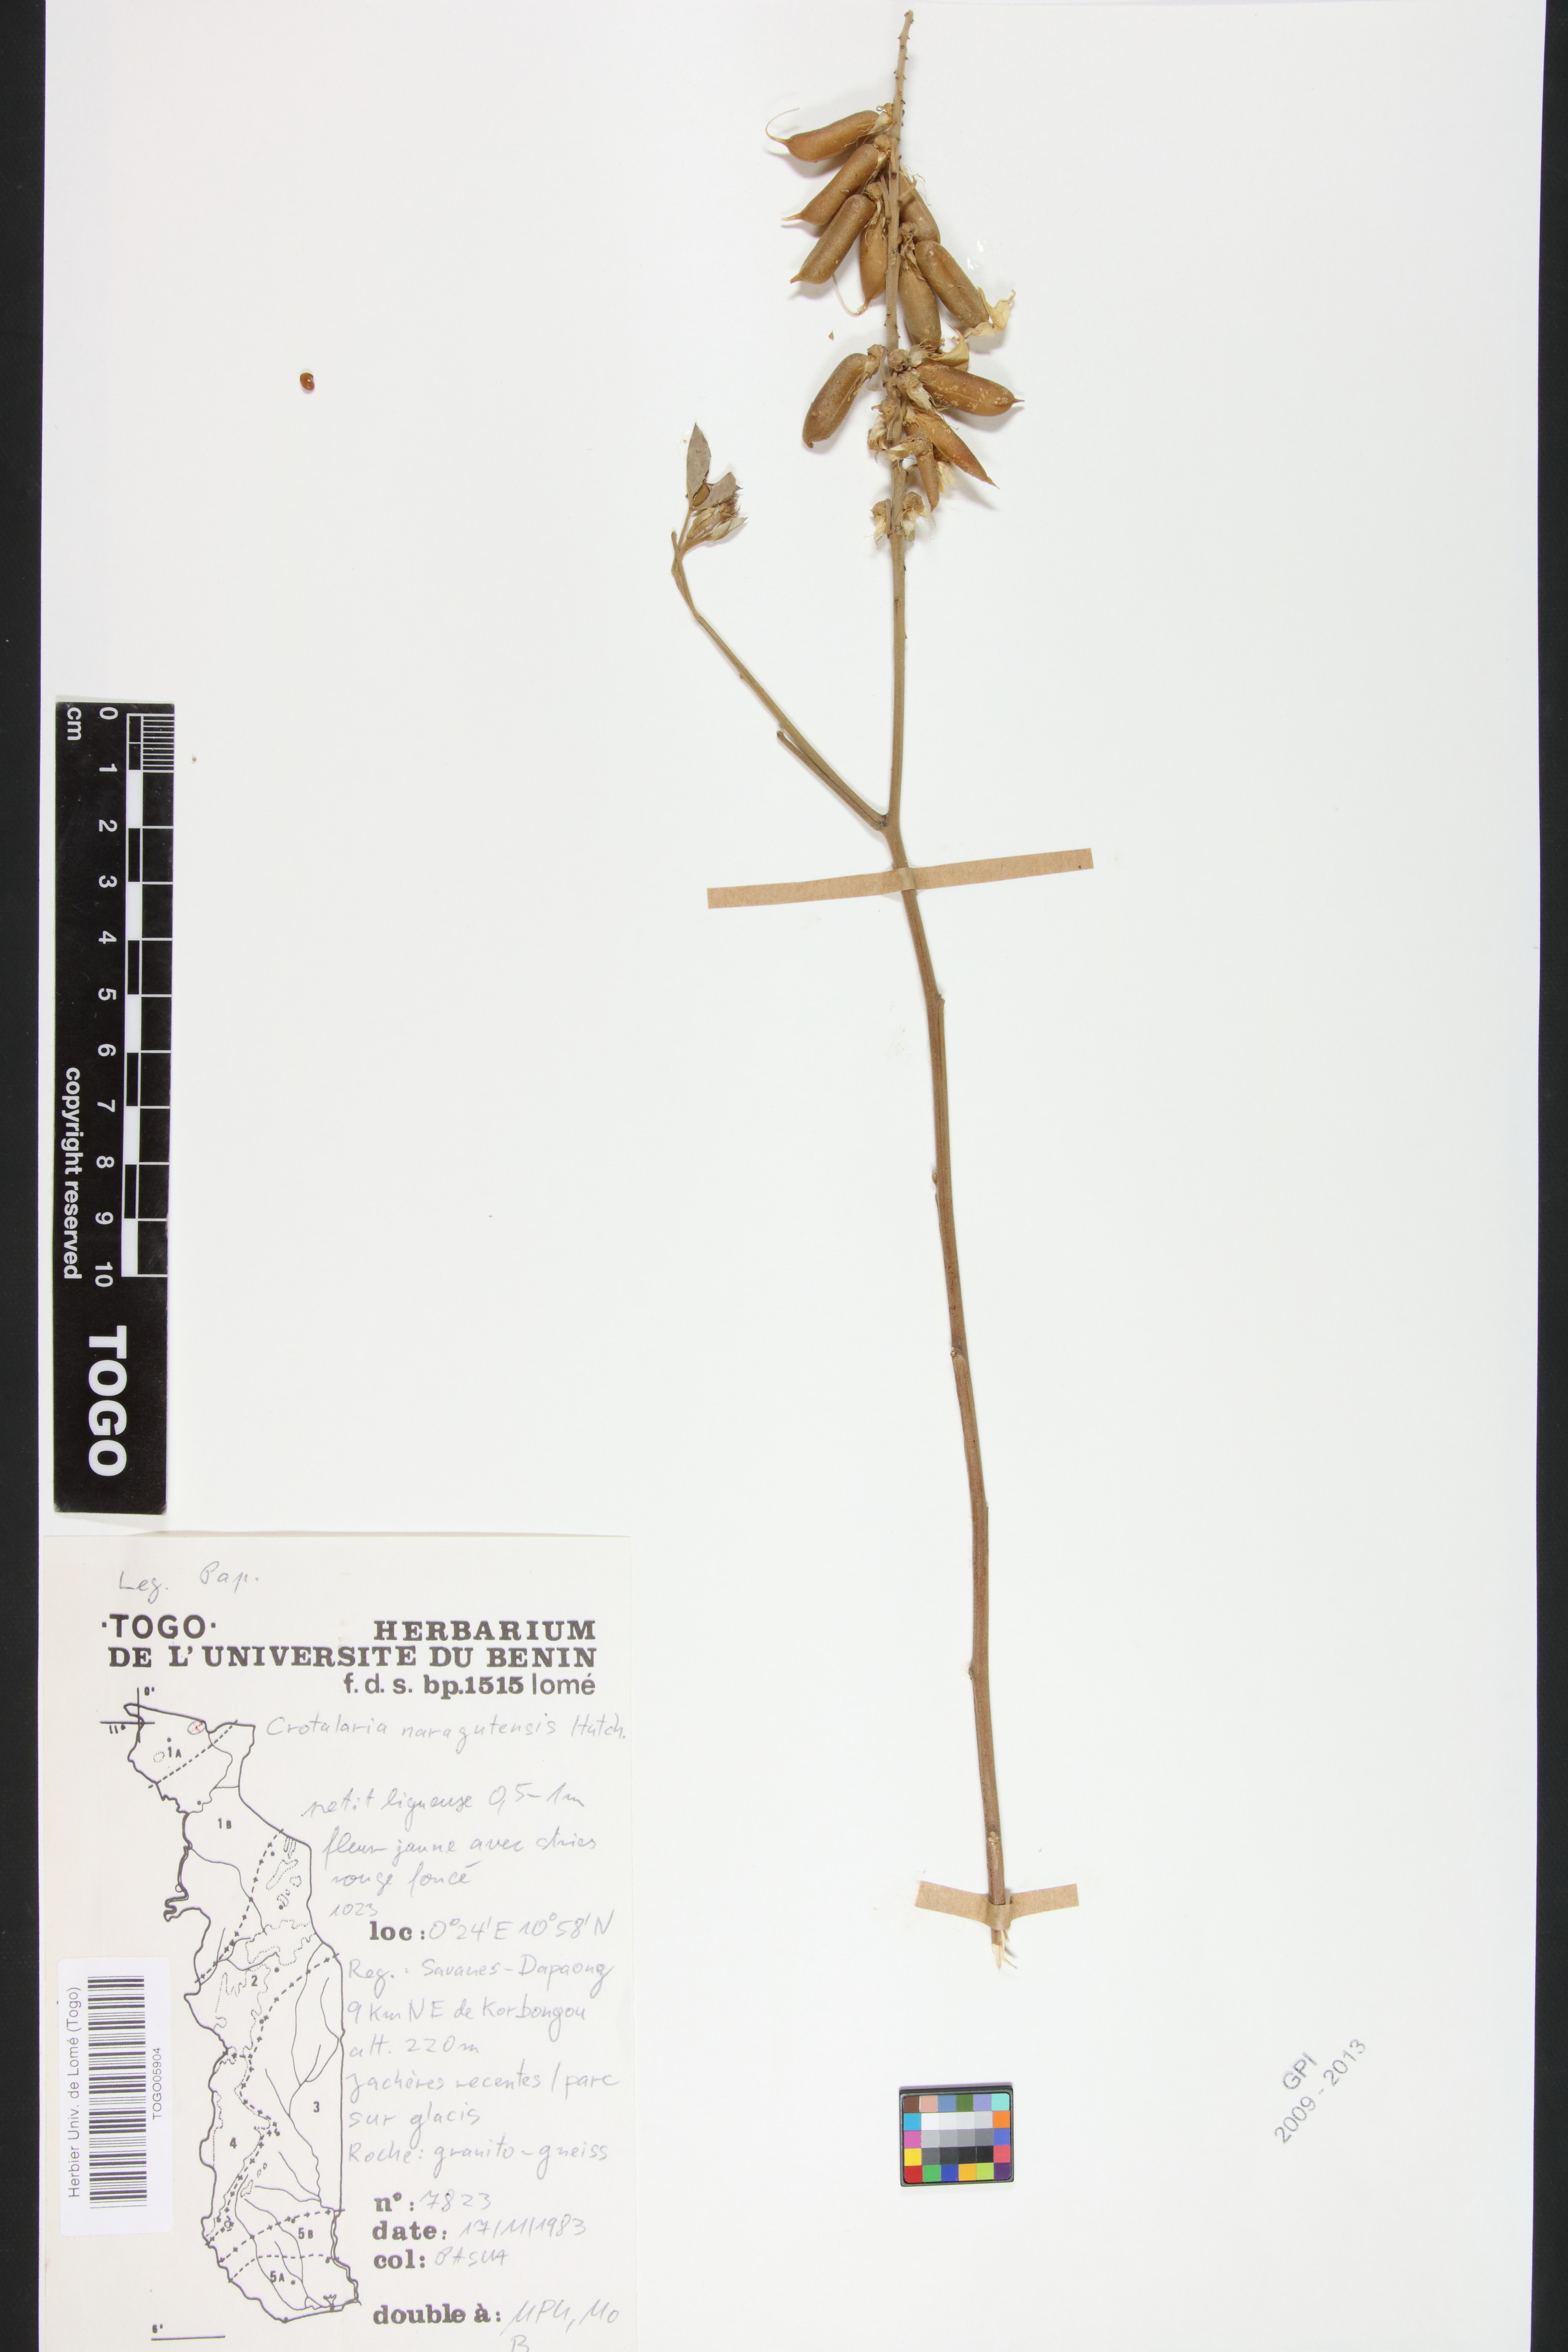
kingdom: Plantae
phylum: Tracheophyta
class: Magnoliopsida
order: Fabales
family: Fabaceae
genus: Crotalaria
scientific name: Crotalaria naragutensis
